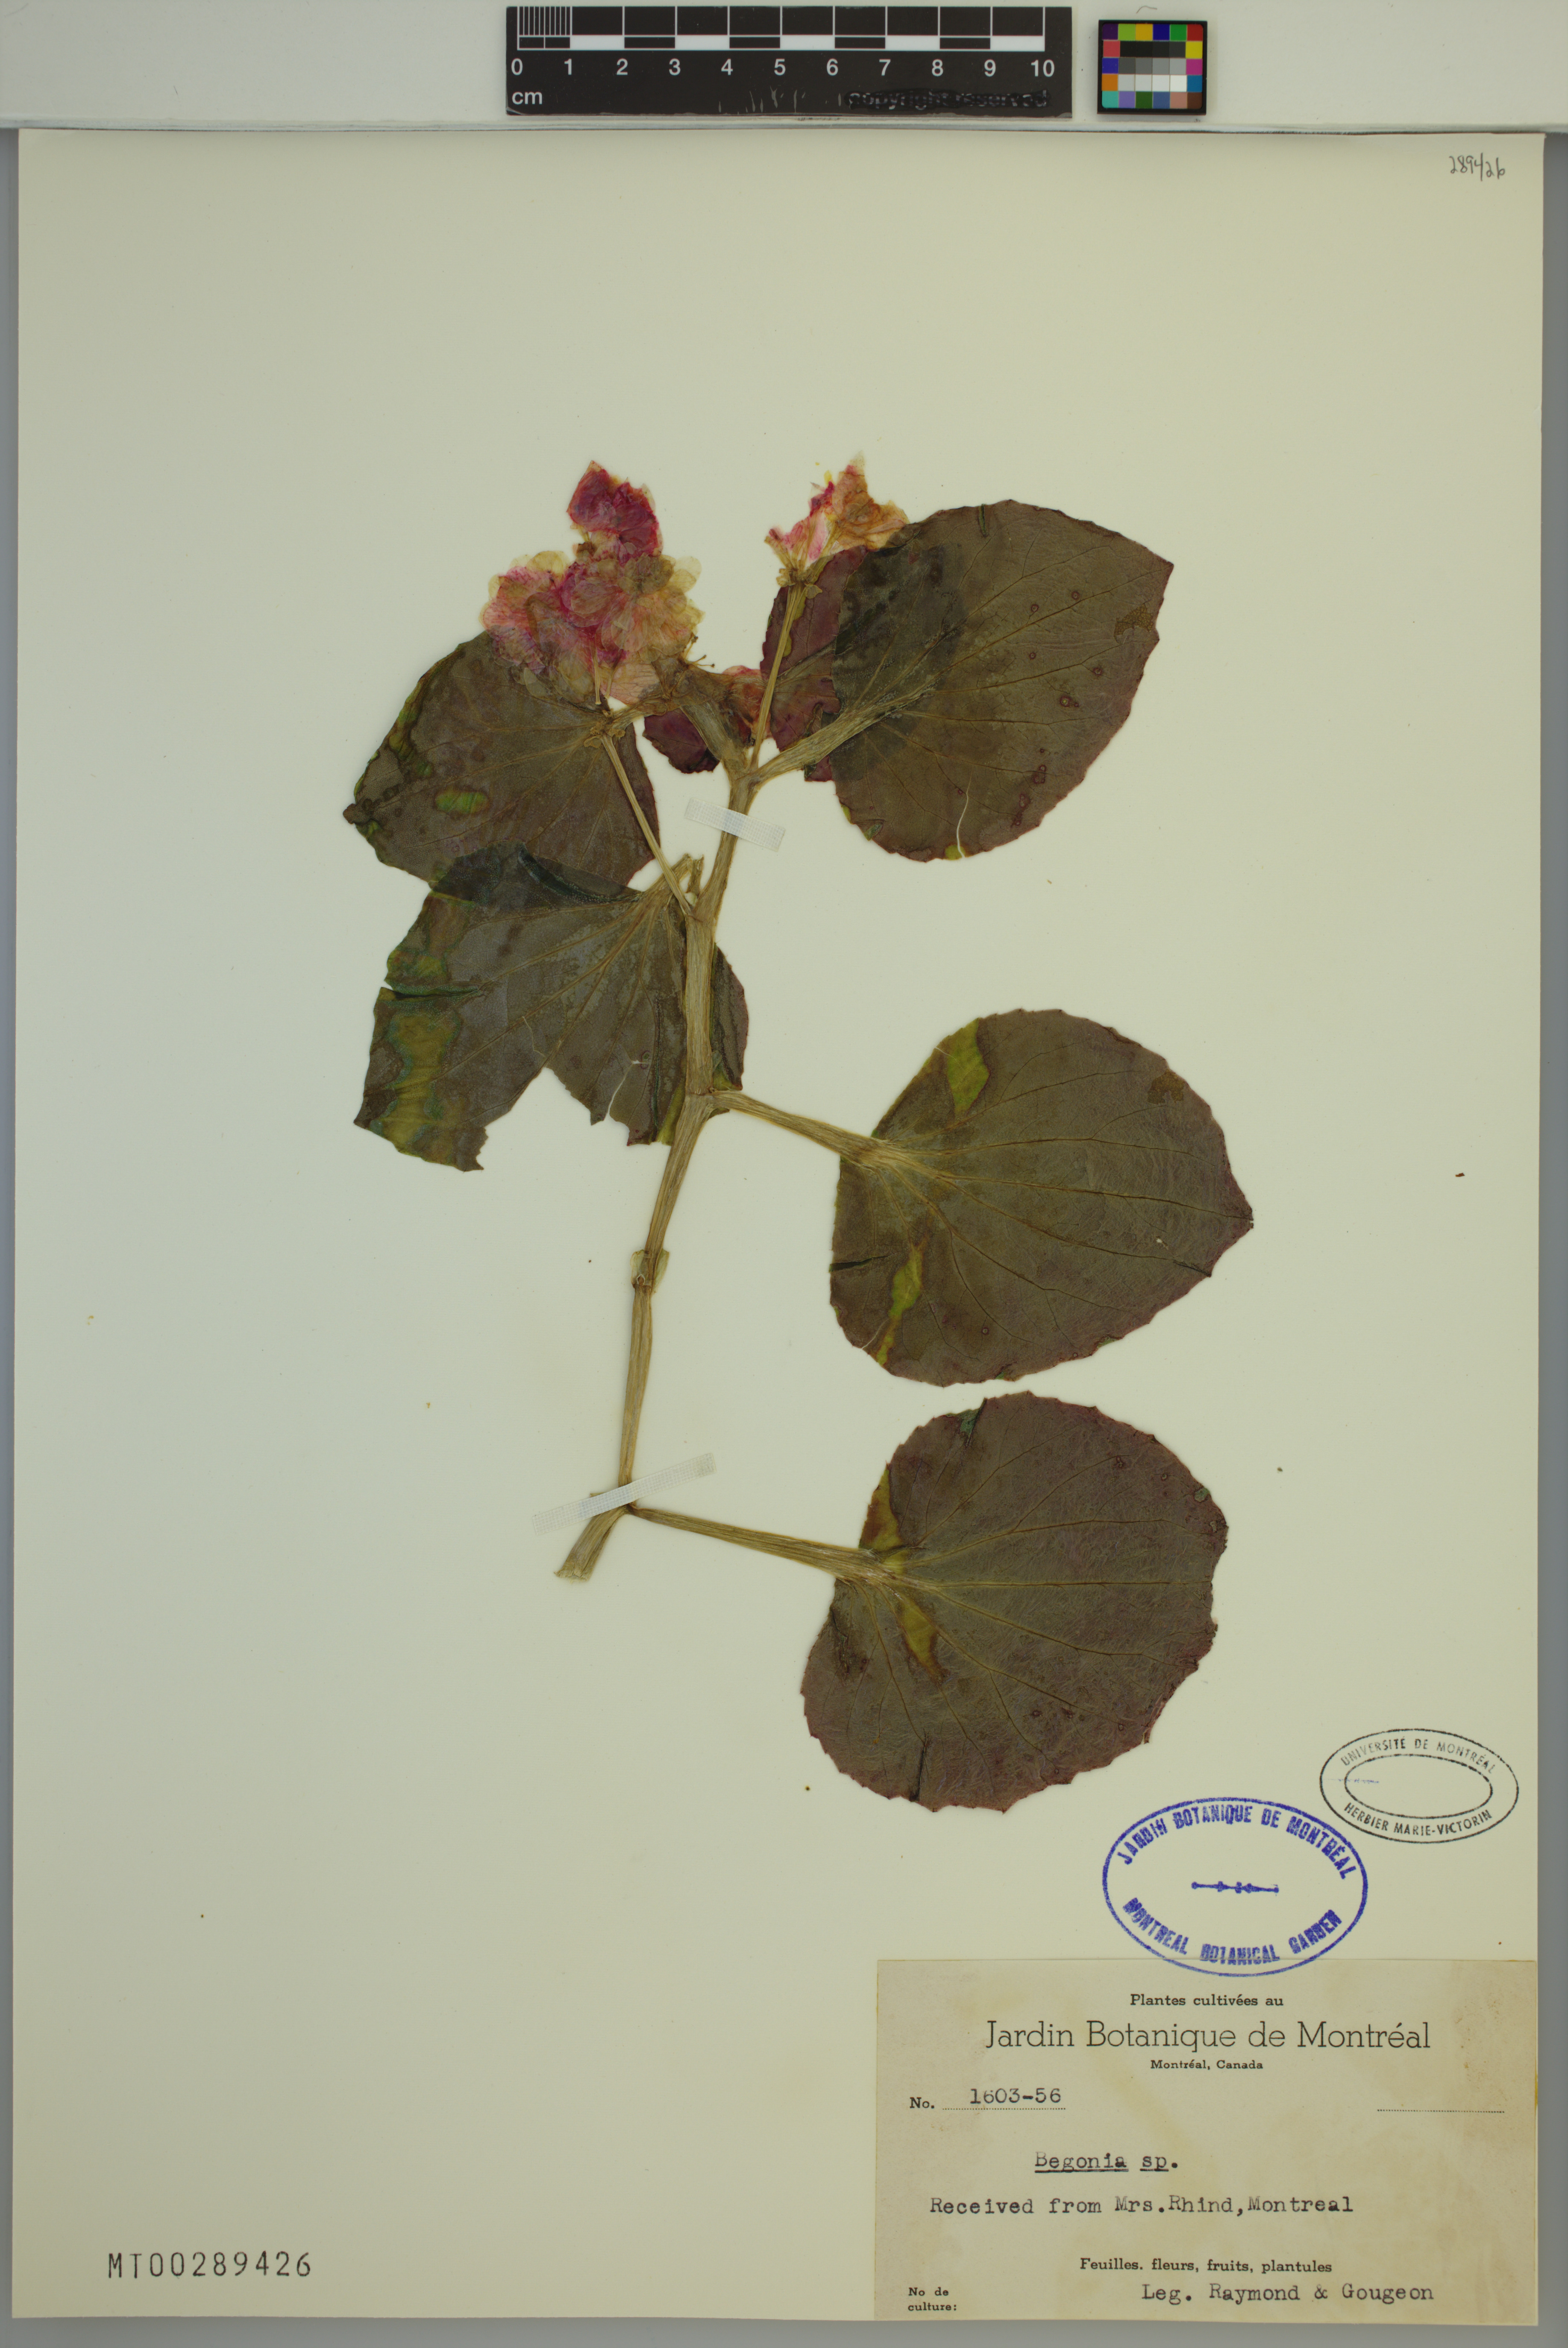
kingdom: Plantae
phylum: Tracheophyta
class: Magnoliopsida
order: Cucurbitales
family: Begoniaceae
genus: Begonia
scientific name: Begonia
